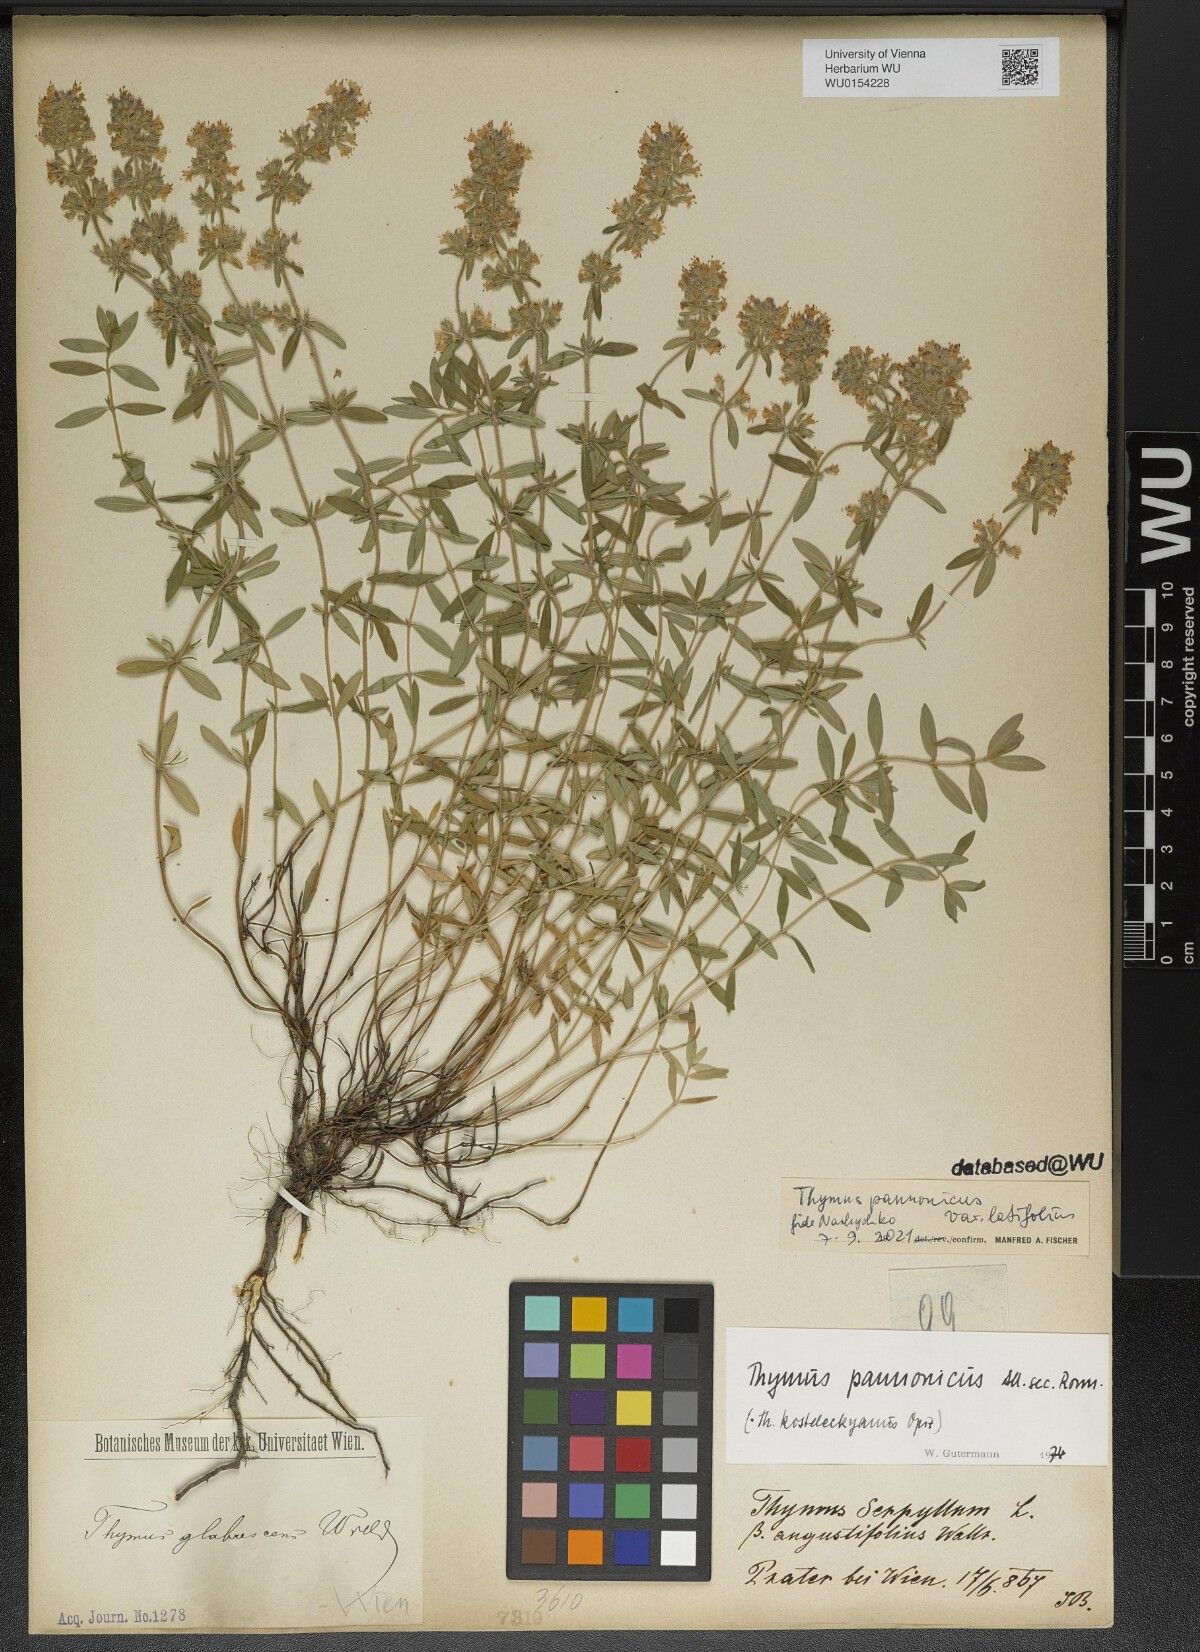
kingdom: Plantae
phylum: Tracheophyta
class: Magnoliopsida
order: Lamiales
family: Lamiaceae
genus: Thymus
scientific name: Thymus pannonicus
